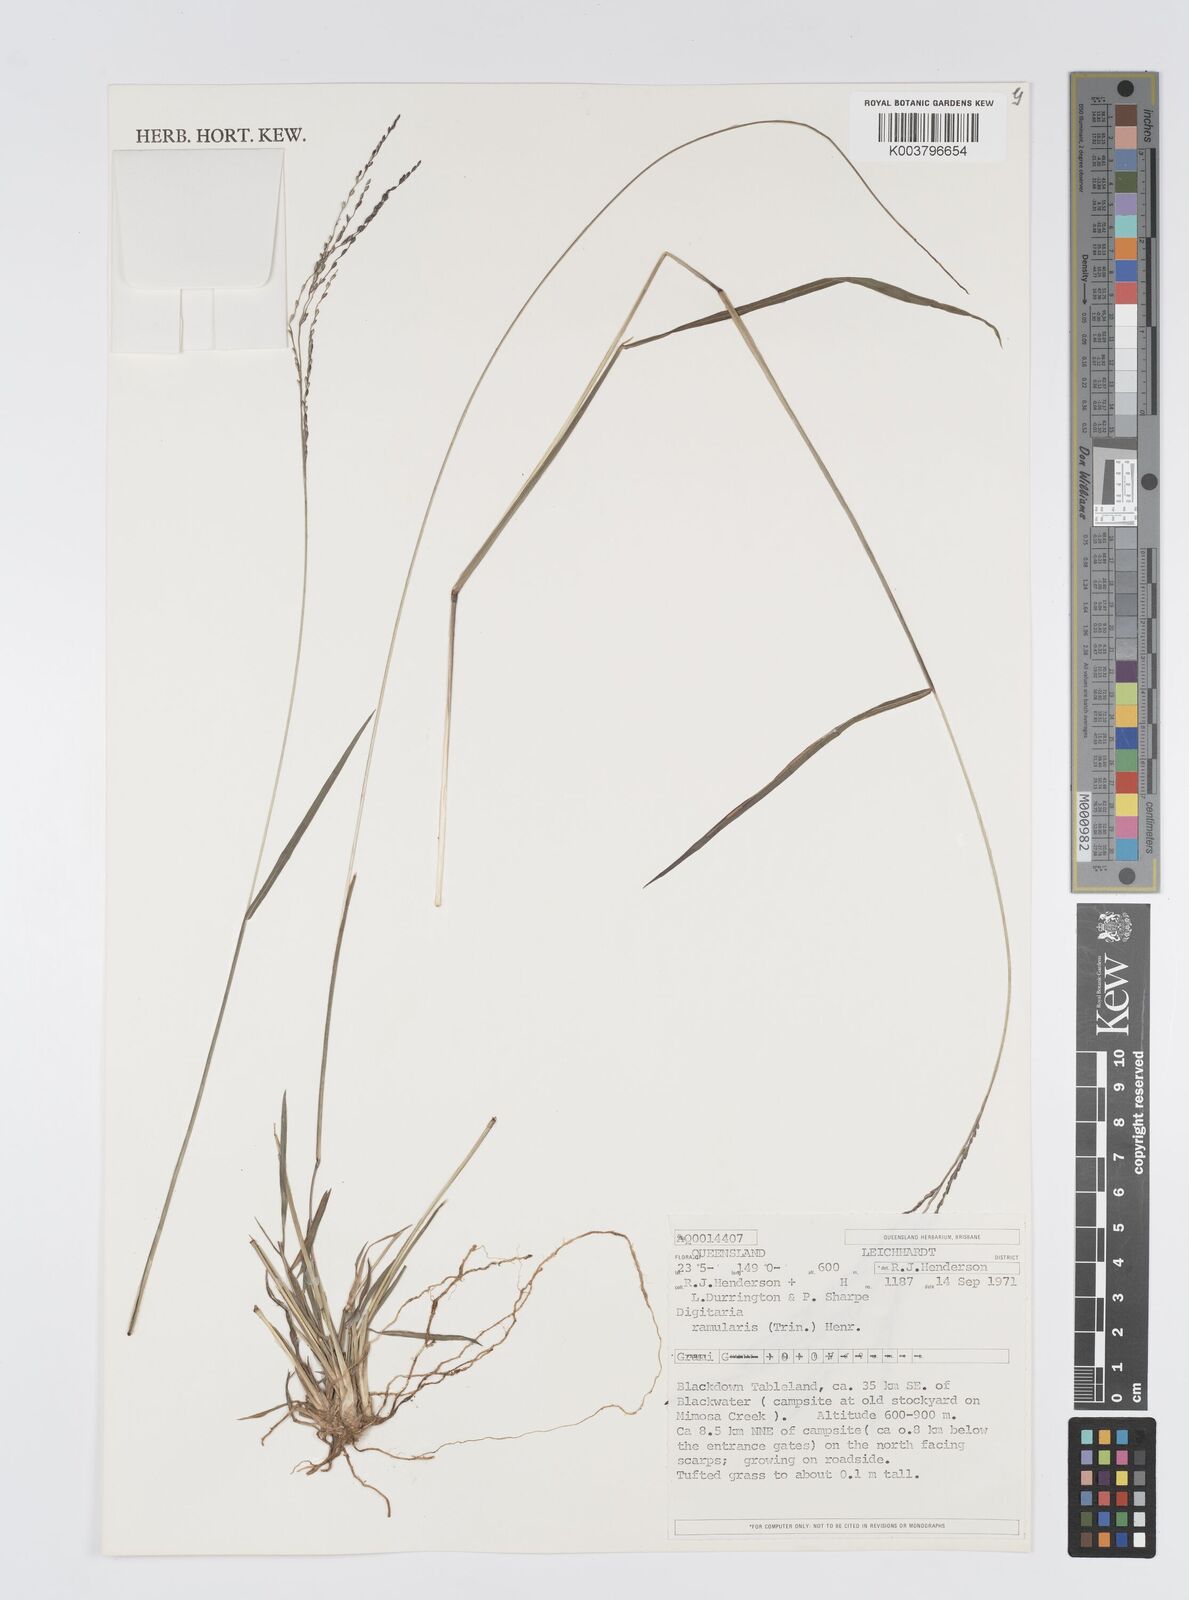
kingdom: Plantae
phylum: Tracheophyta
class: Liliopsida
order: Poales
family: Poaceae
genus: Digitaria
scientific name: Digitaria ramularis
